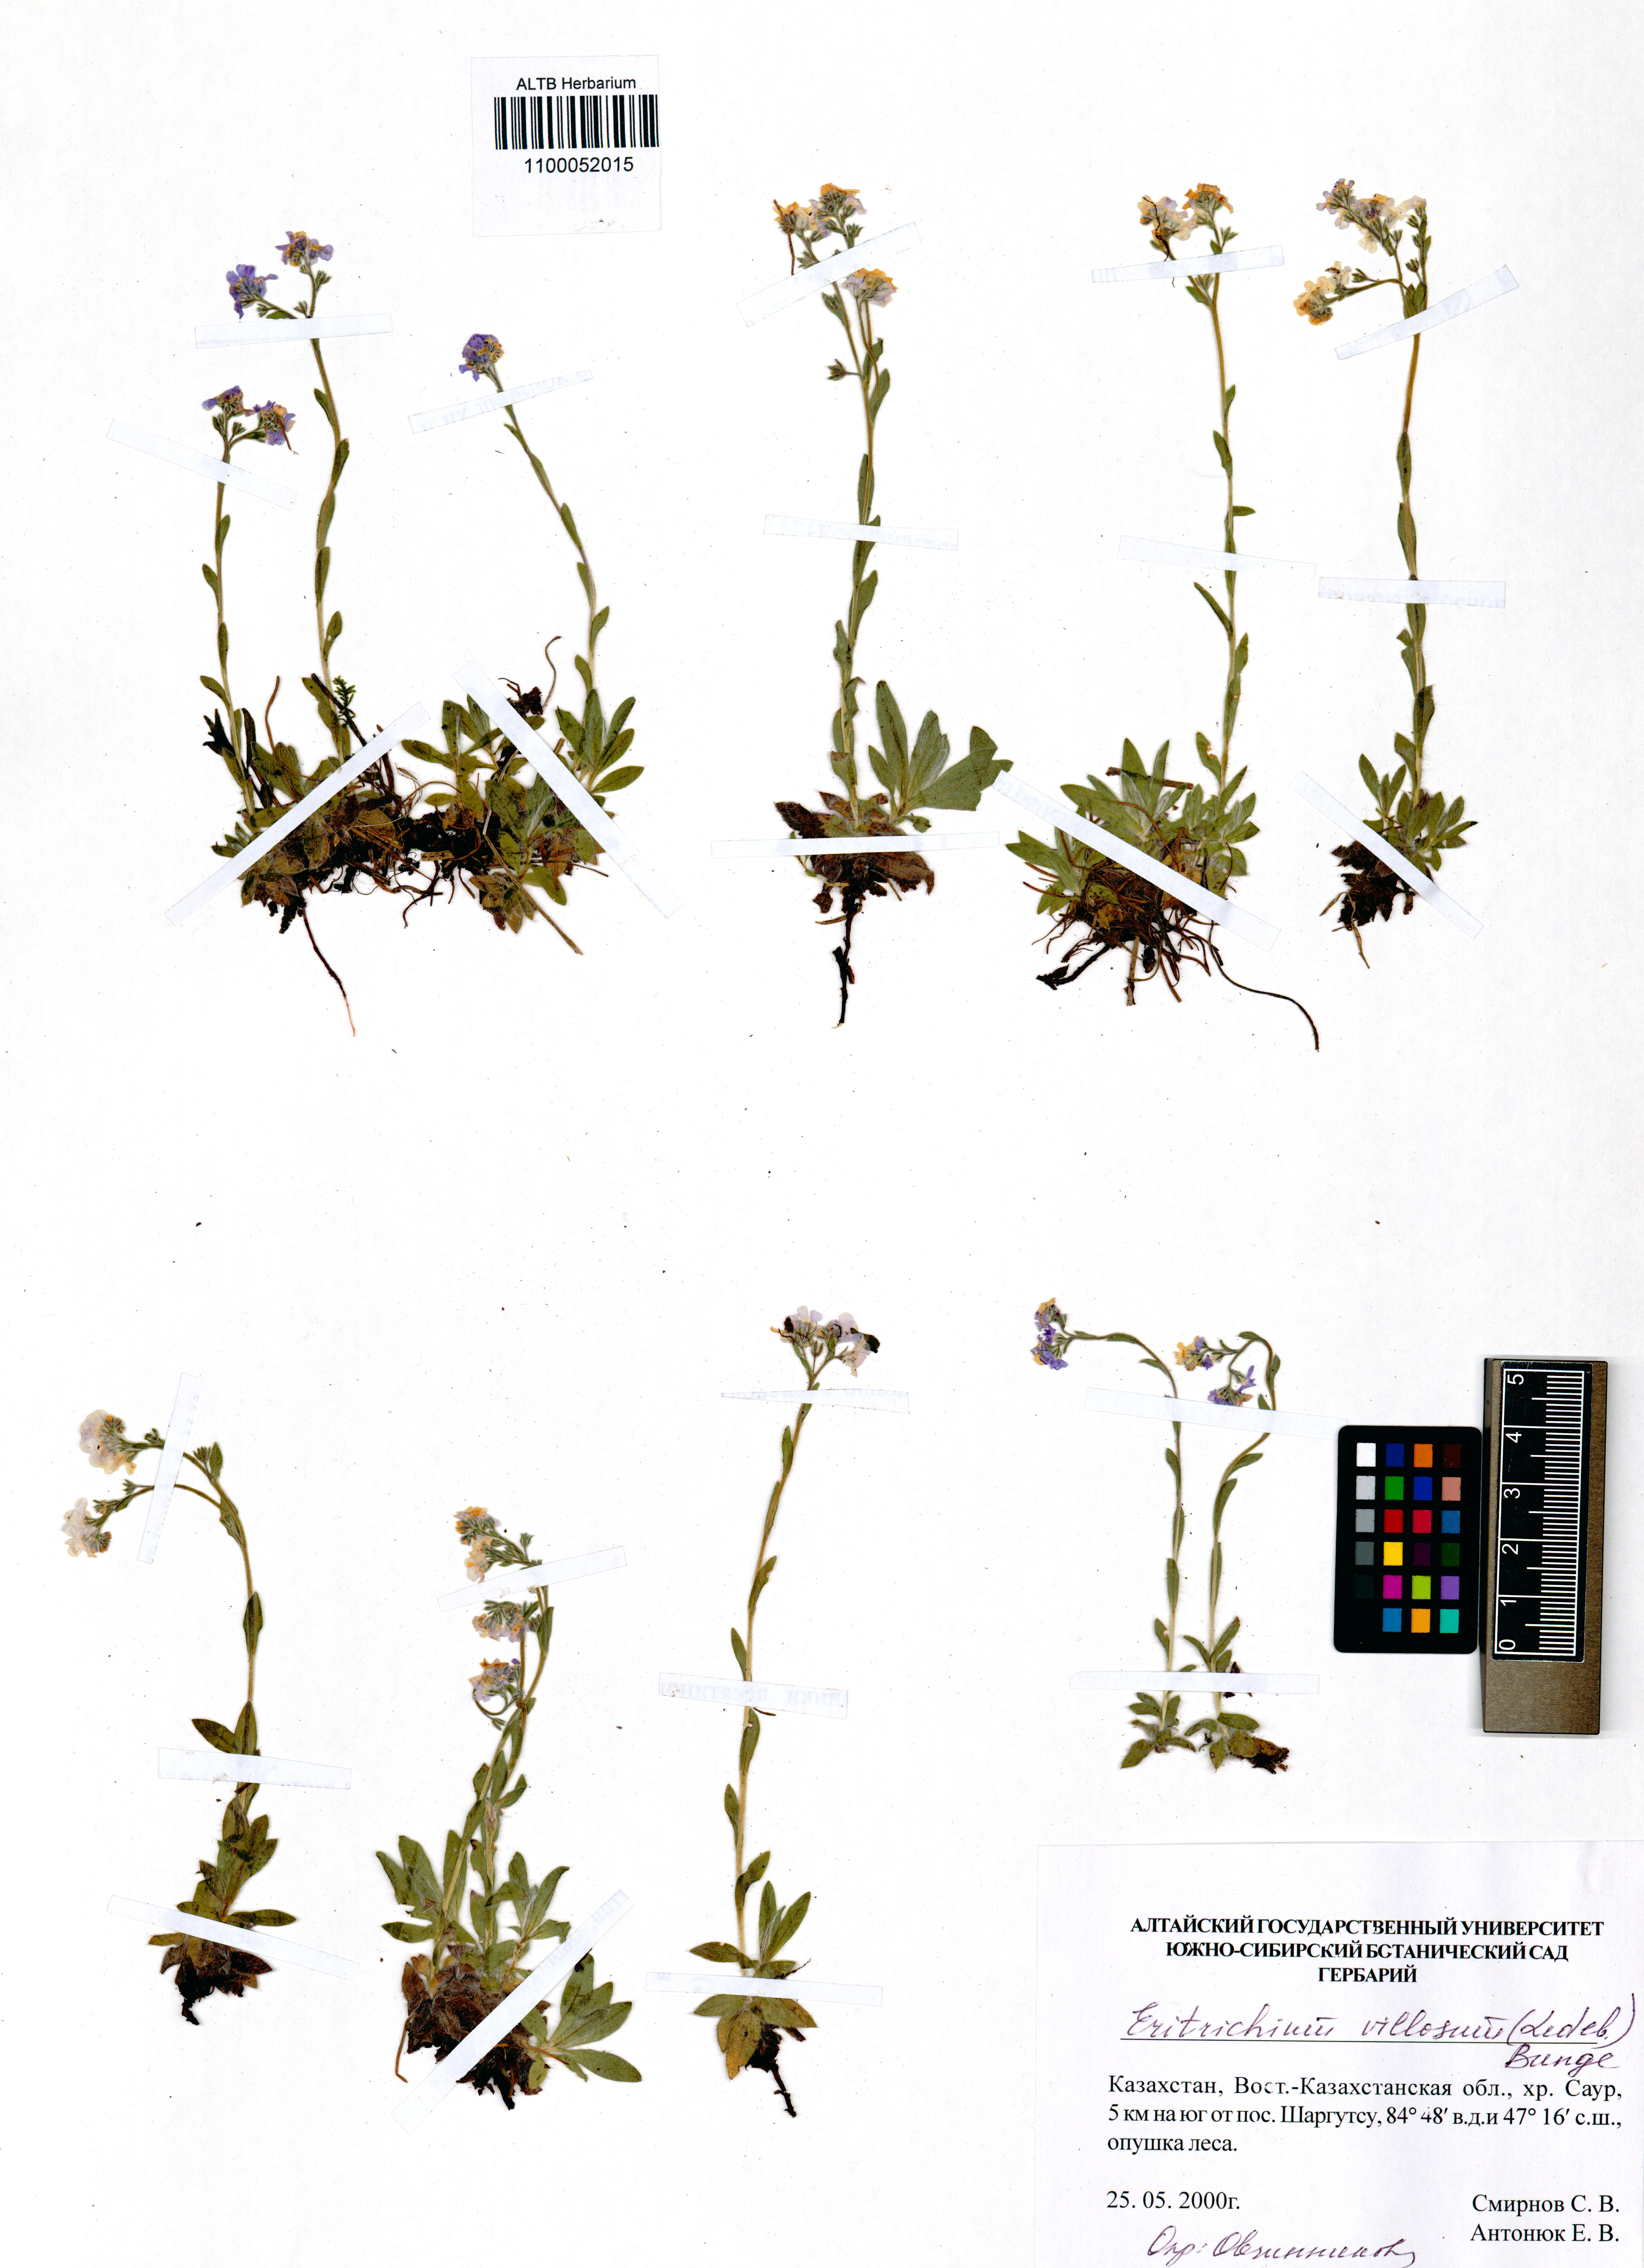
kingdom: Plantae
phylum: Tracheophyta
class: Magnoliopsida
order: Boraginales
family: Boraginaceae
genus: Eritrichium
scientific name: Eritrichium villosum
